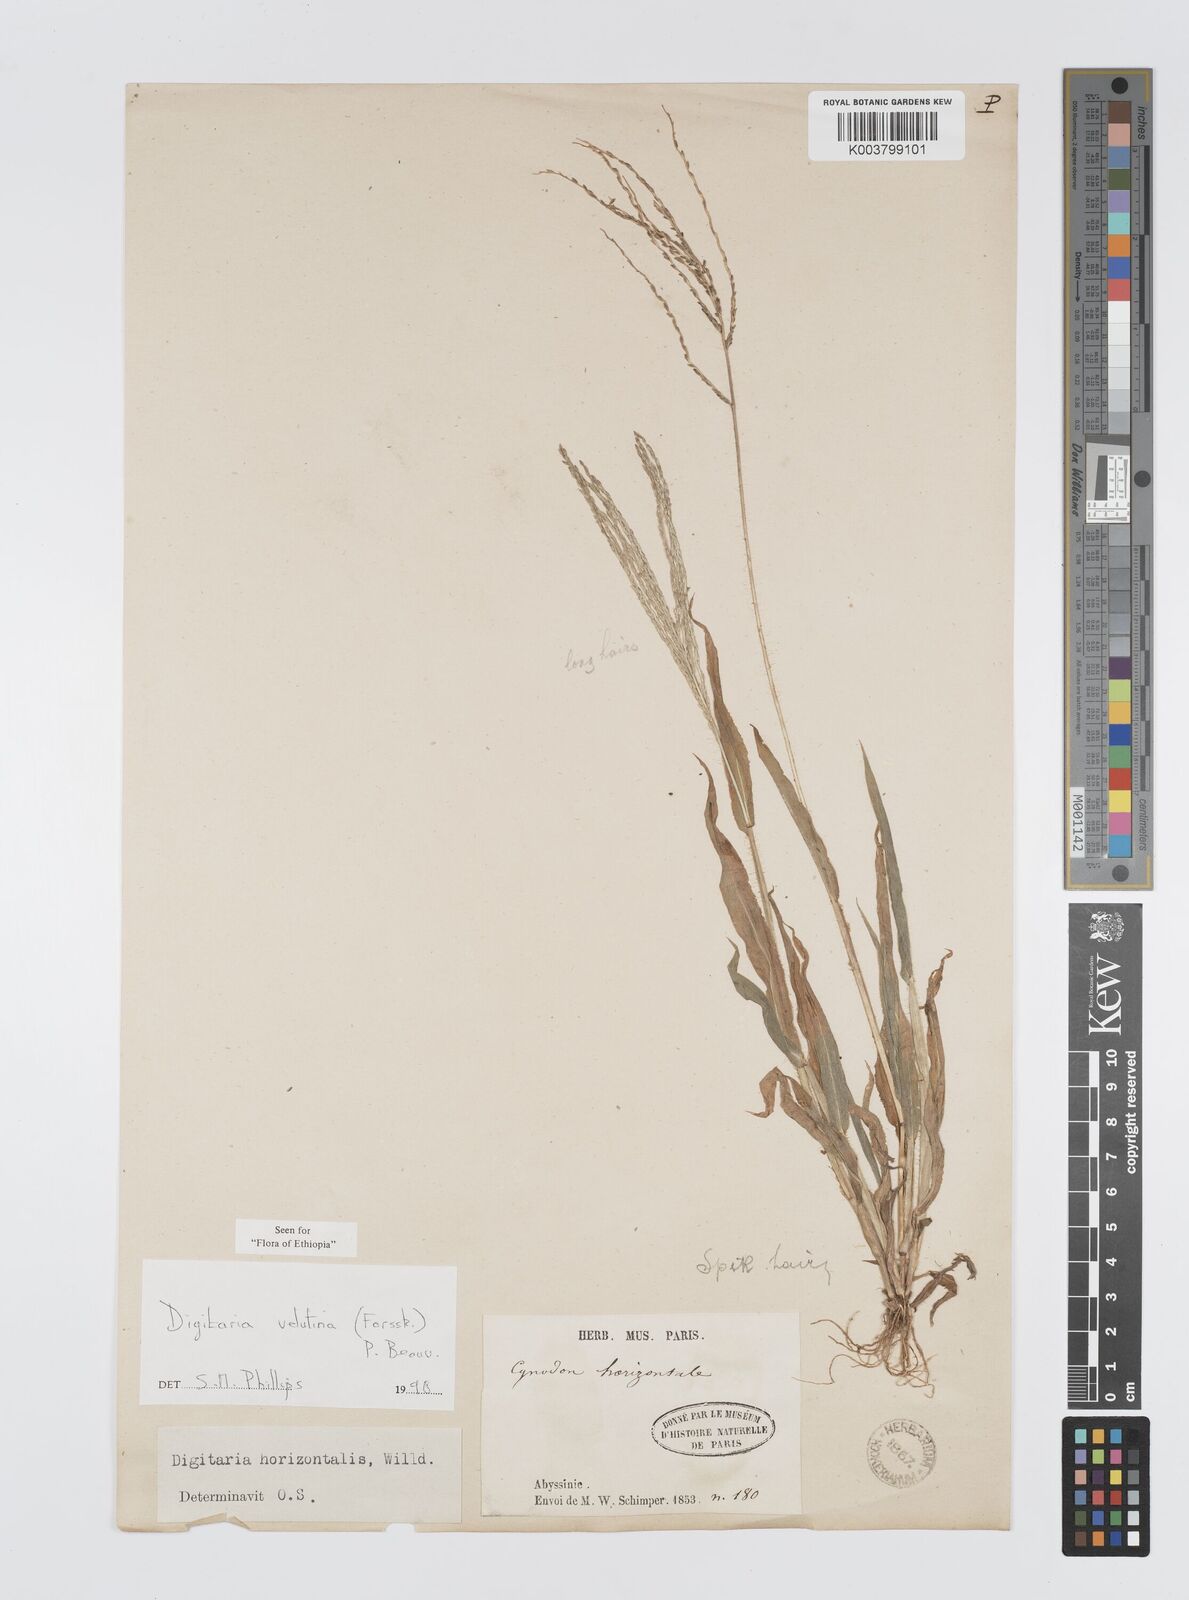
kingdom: Plantae
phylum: Tracheophyta
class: Liliopsida
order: Poales
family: Poaceae
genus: Digitaria
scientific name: Digitaria velutina
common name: Long-plume finger grass
